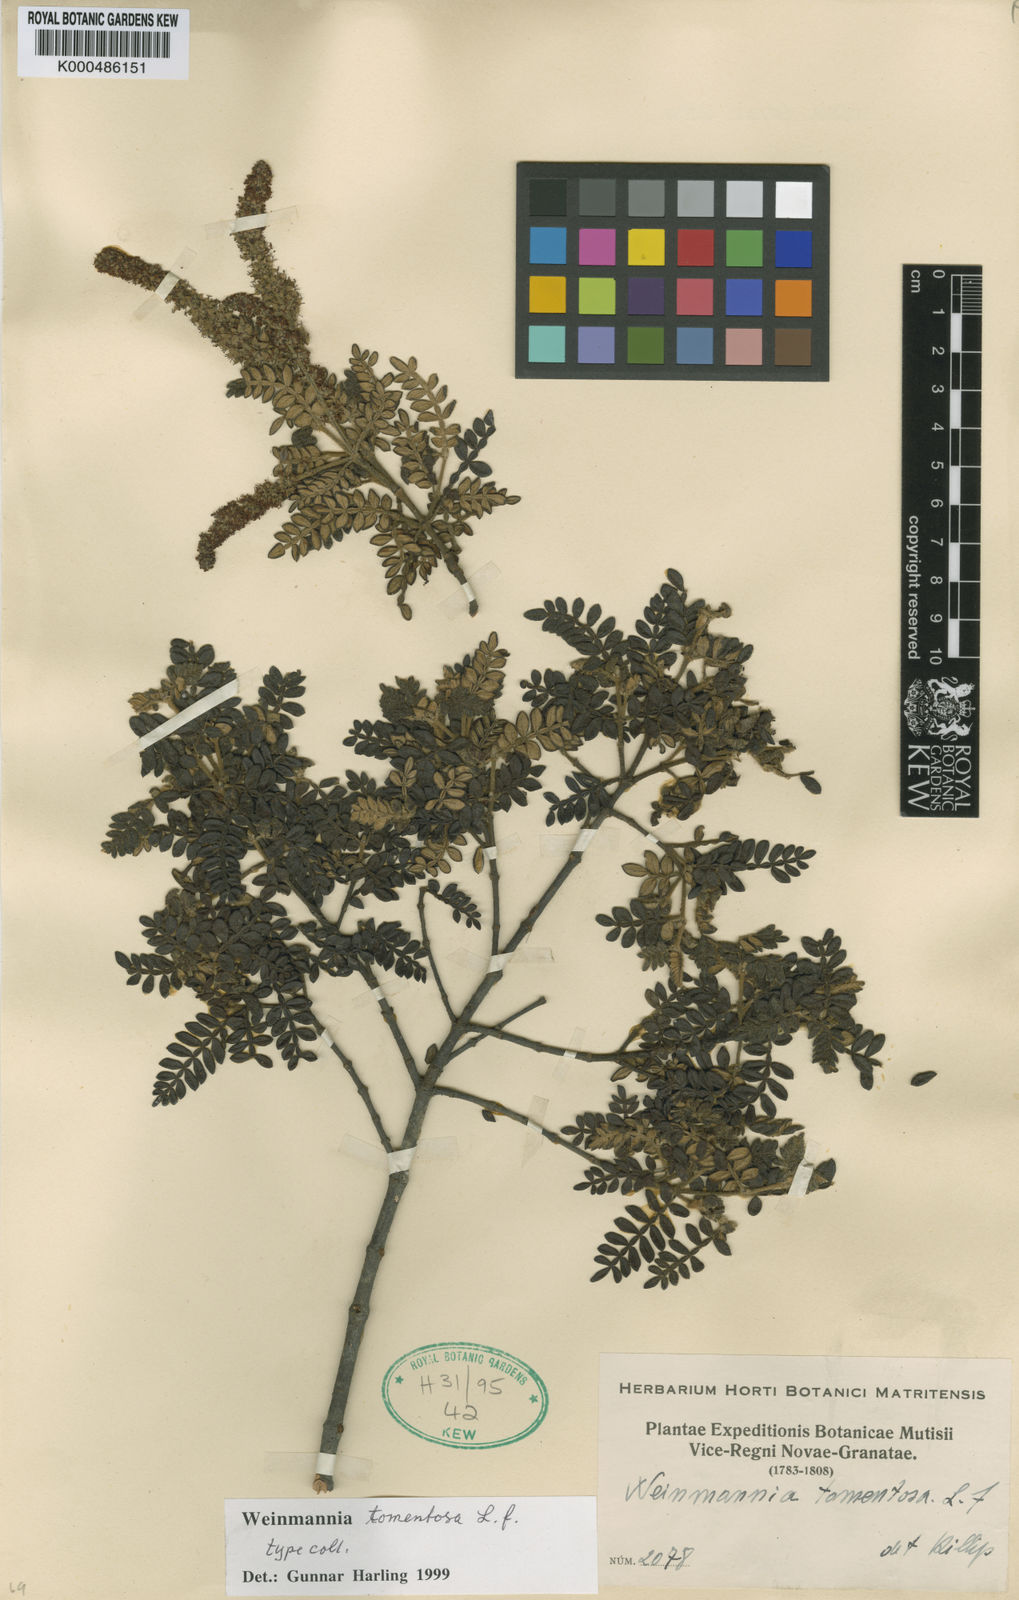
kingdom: Plantae
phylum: Tracheophyta
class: Magnoliopsida
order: Oxalidales
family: Cunoniaceae
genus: Weinmannia
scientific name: Weinmannia tomentosa
